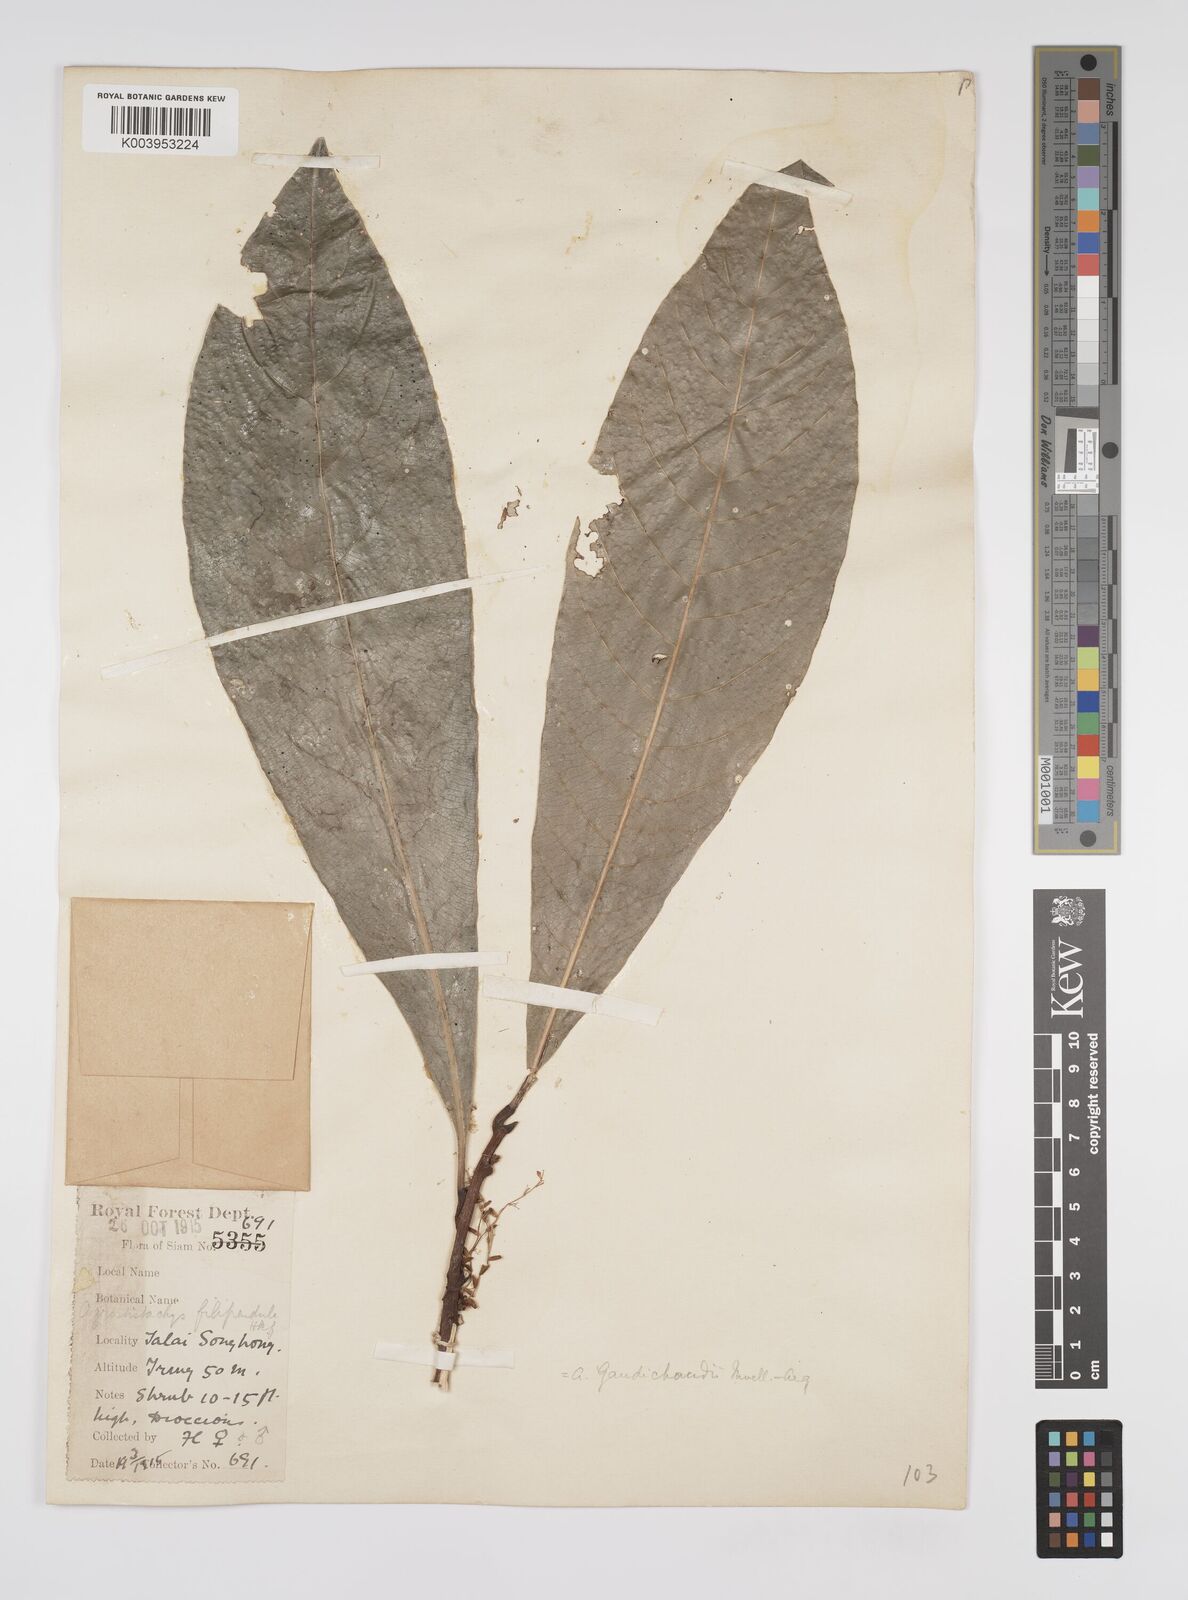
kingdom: Plantae
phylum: Tracheophyta
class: Magnoliopsida
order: Malpighiales
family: Euphorbiaceae
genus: Agrostistachys
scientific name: Agrostistachys gaudichaudii
